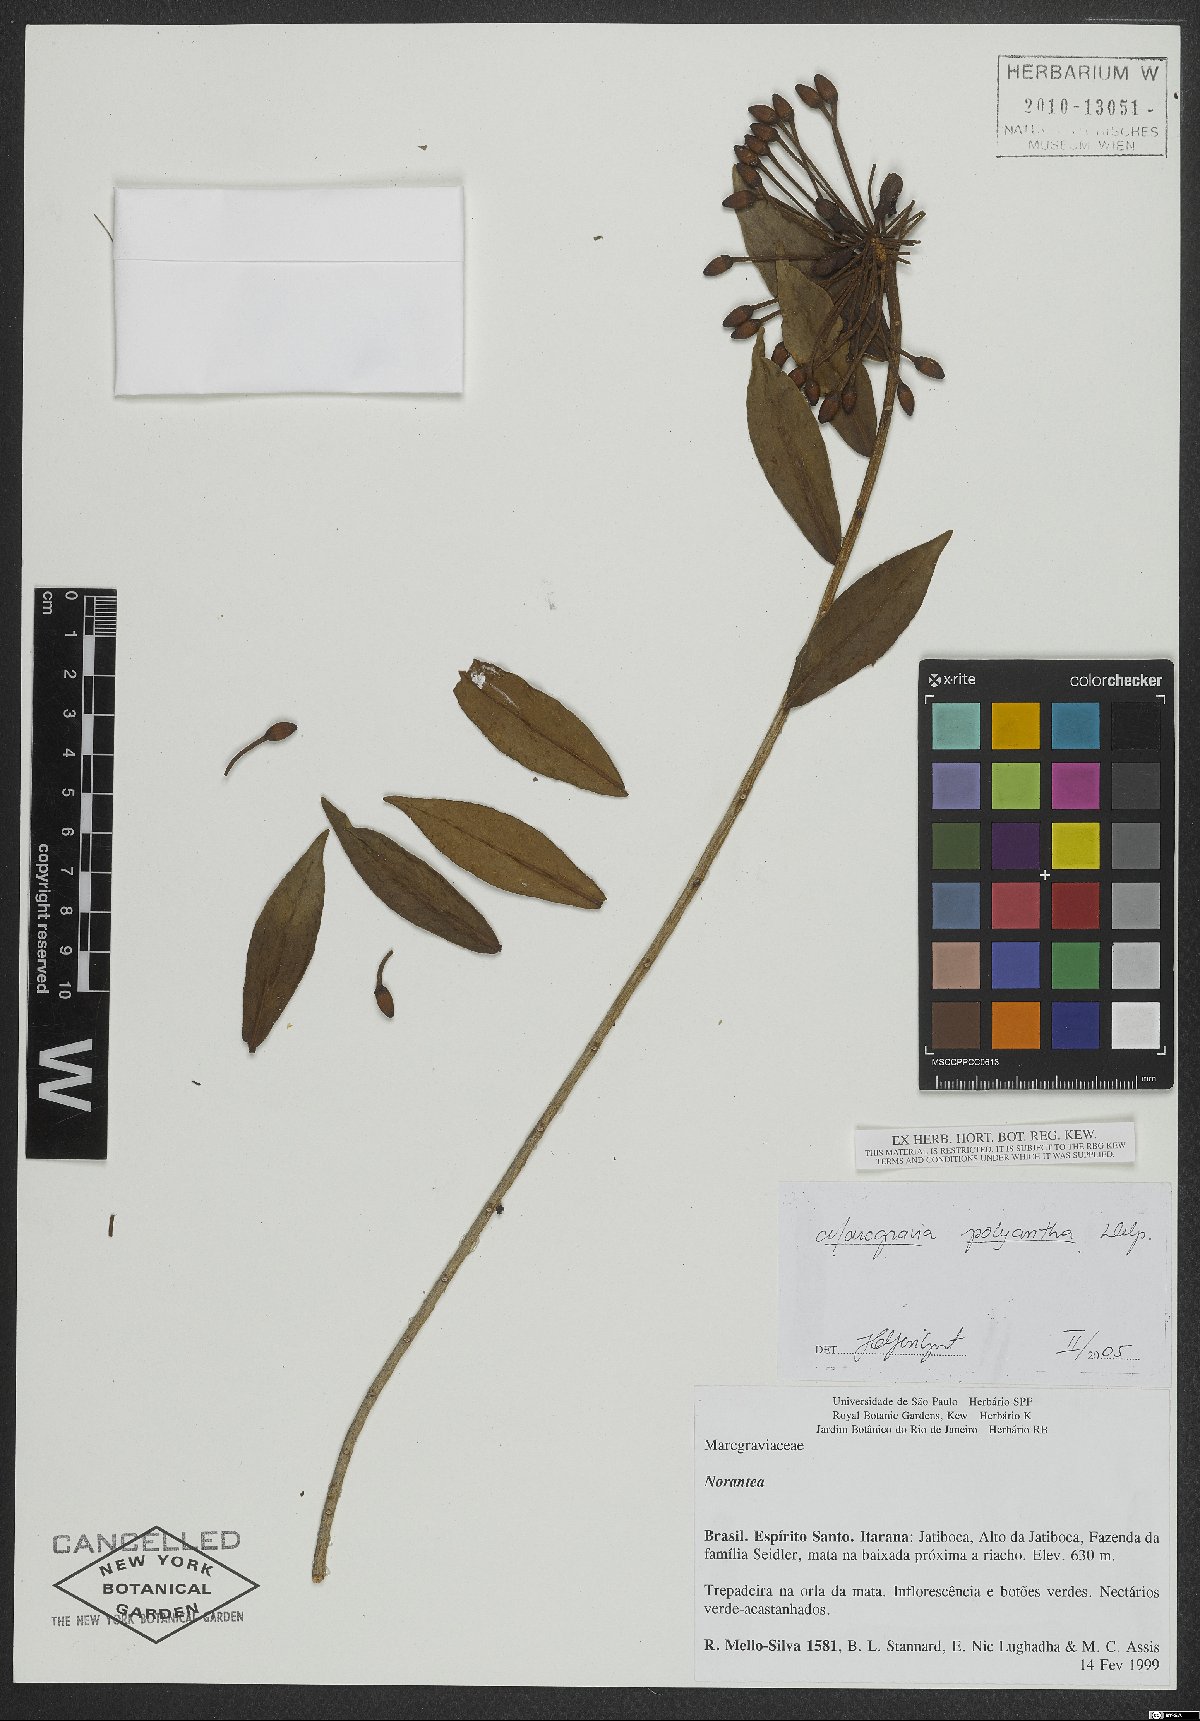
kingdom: Plantae
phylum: Tracheophyta
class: Magnoliopsida
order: Ericales
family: Marcgraviaceae
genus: Marcgravia
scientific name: Marcgravia polyantha
